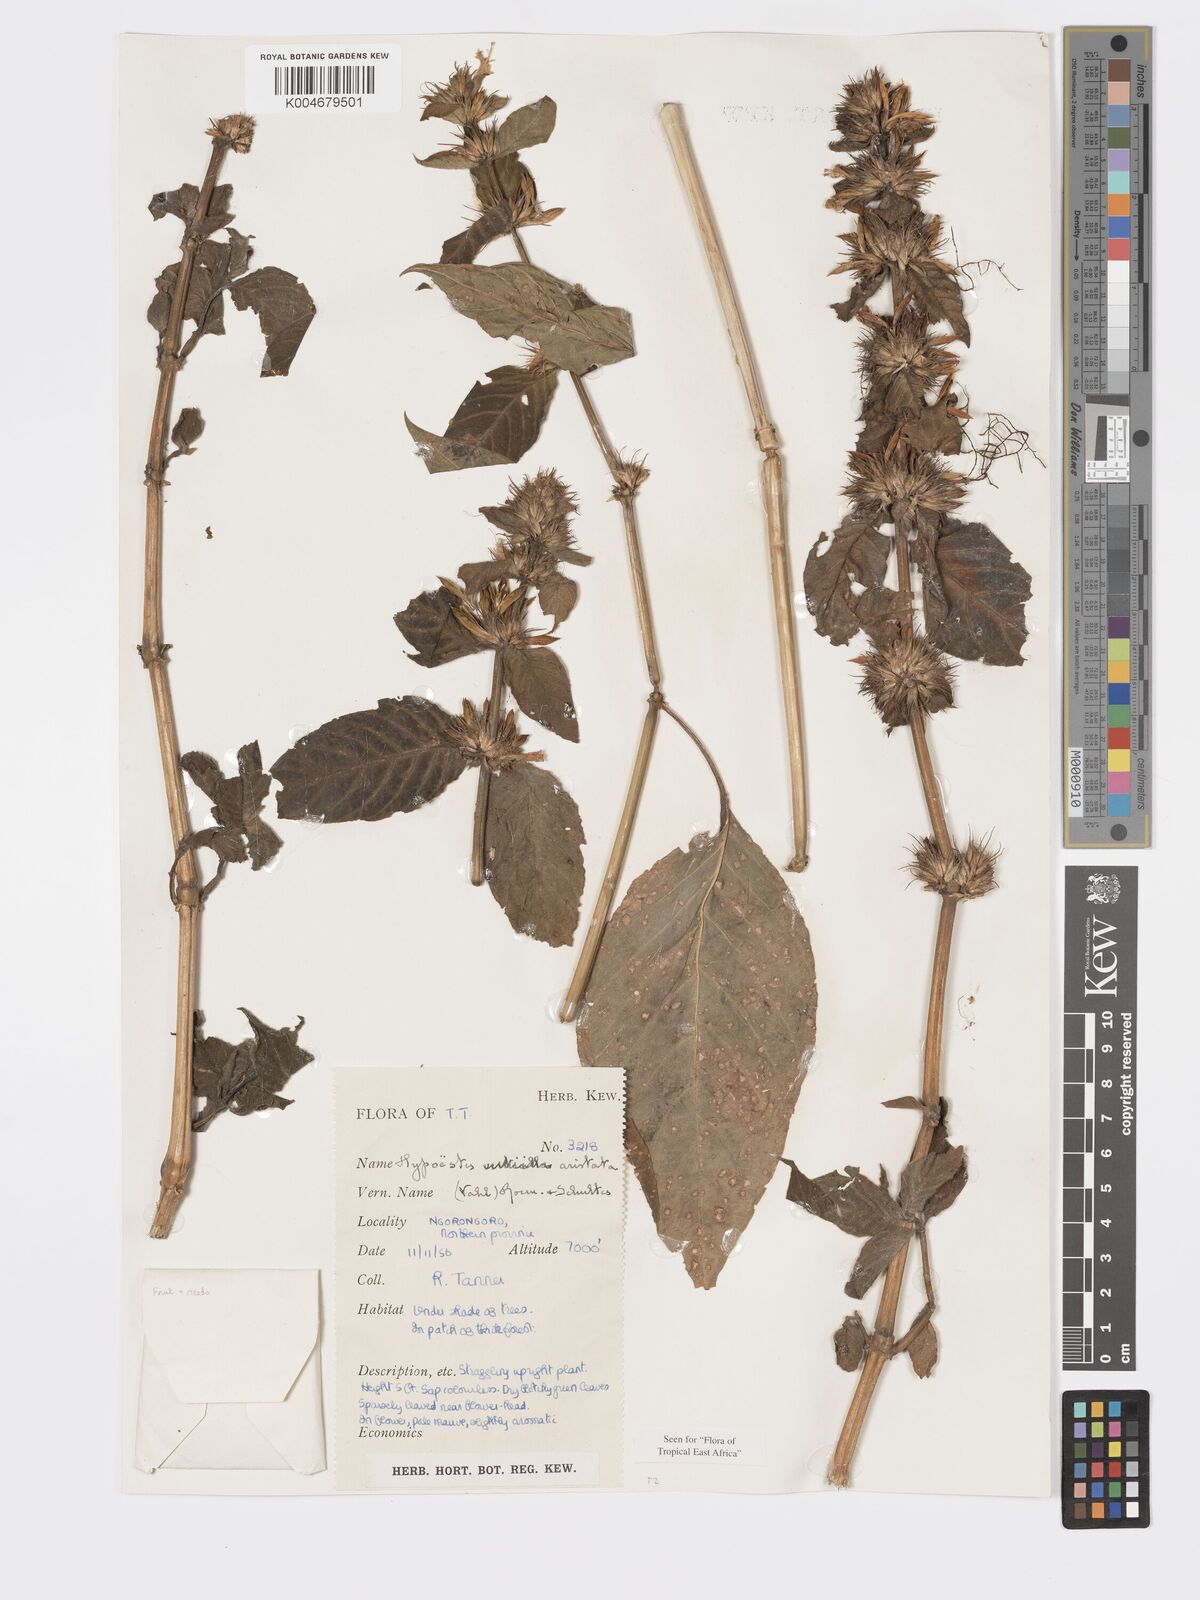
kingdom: Plantae
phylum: Tracheophyta
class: Magnoliopsida
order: Lamiales
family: Acanthaceae
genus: Hypoestes
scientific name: Hypoestes aristata
